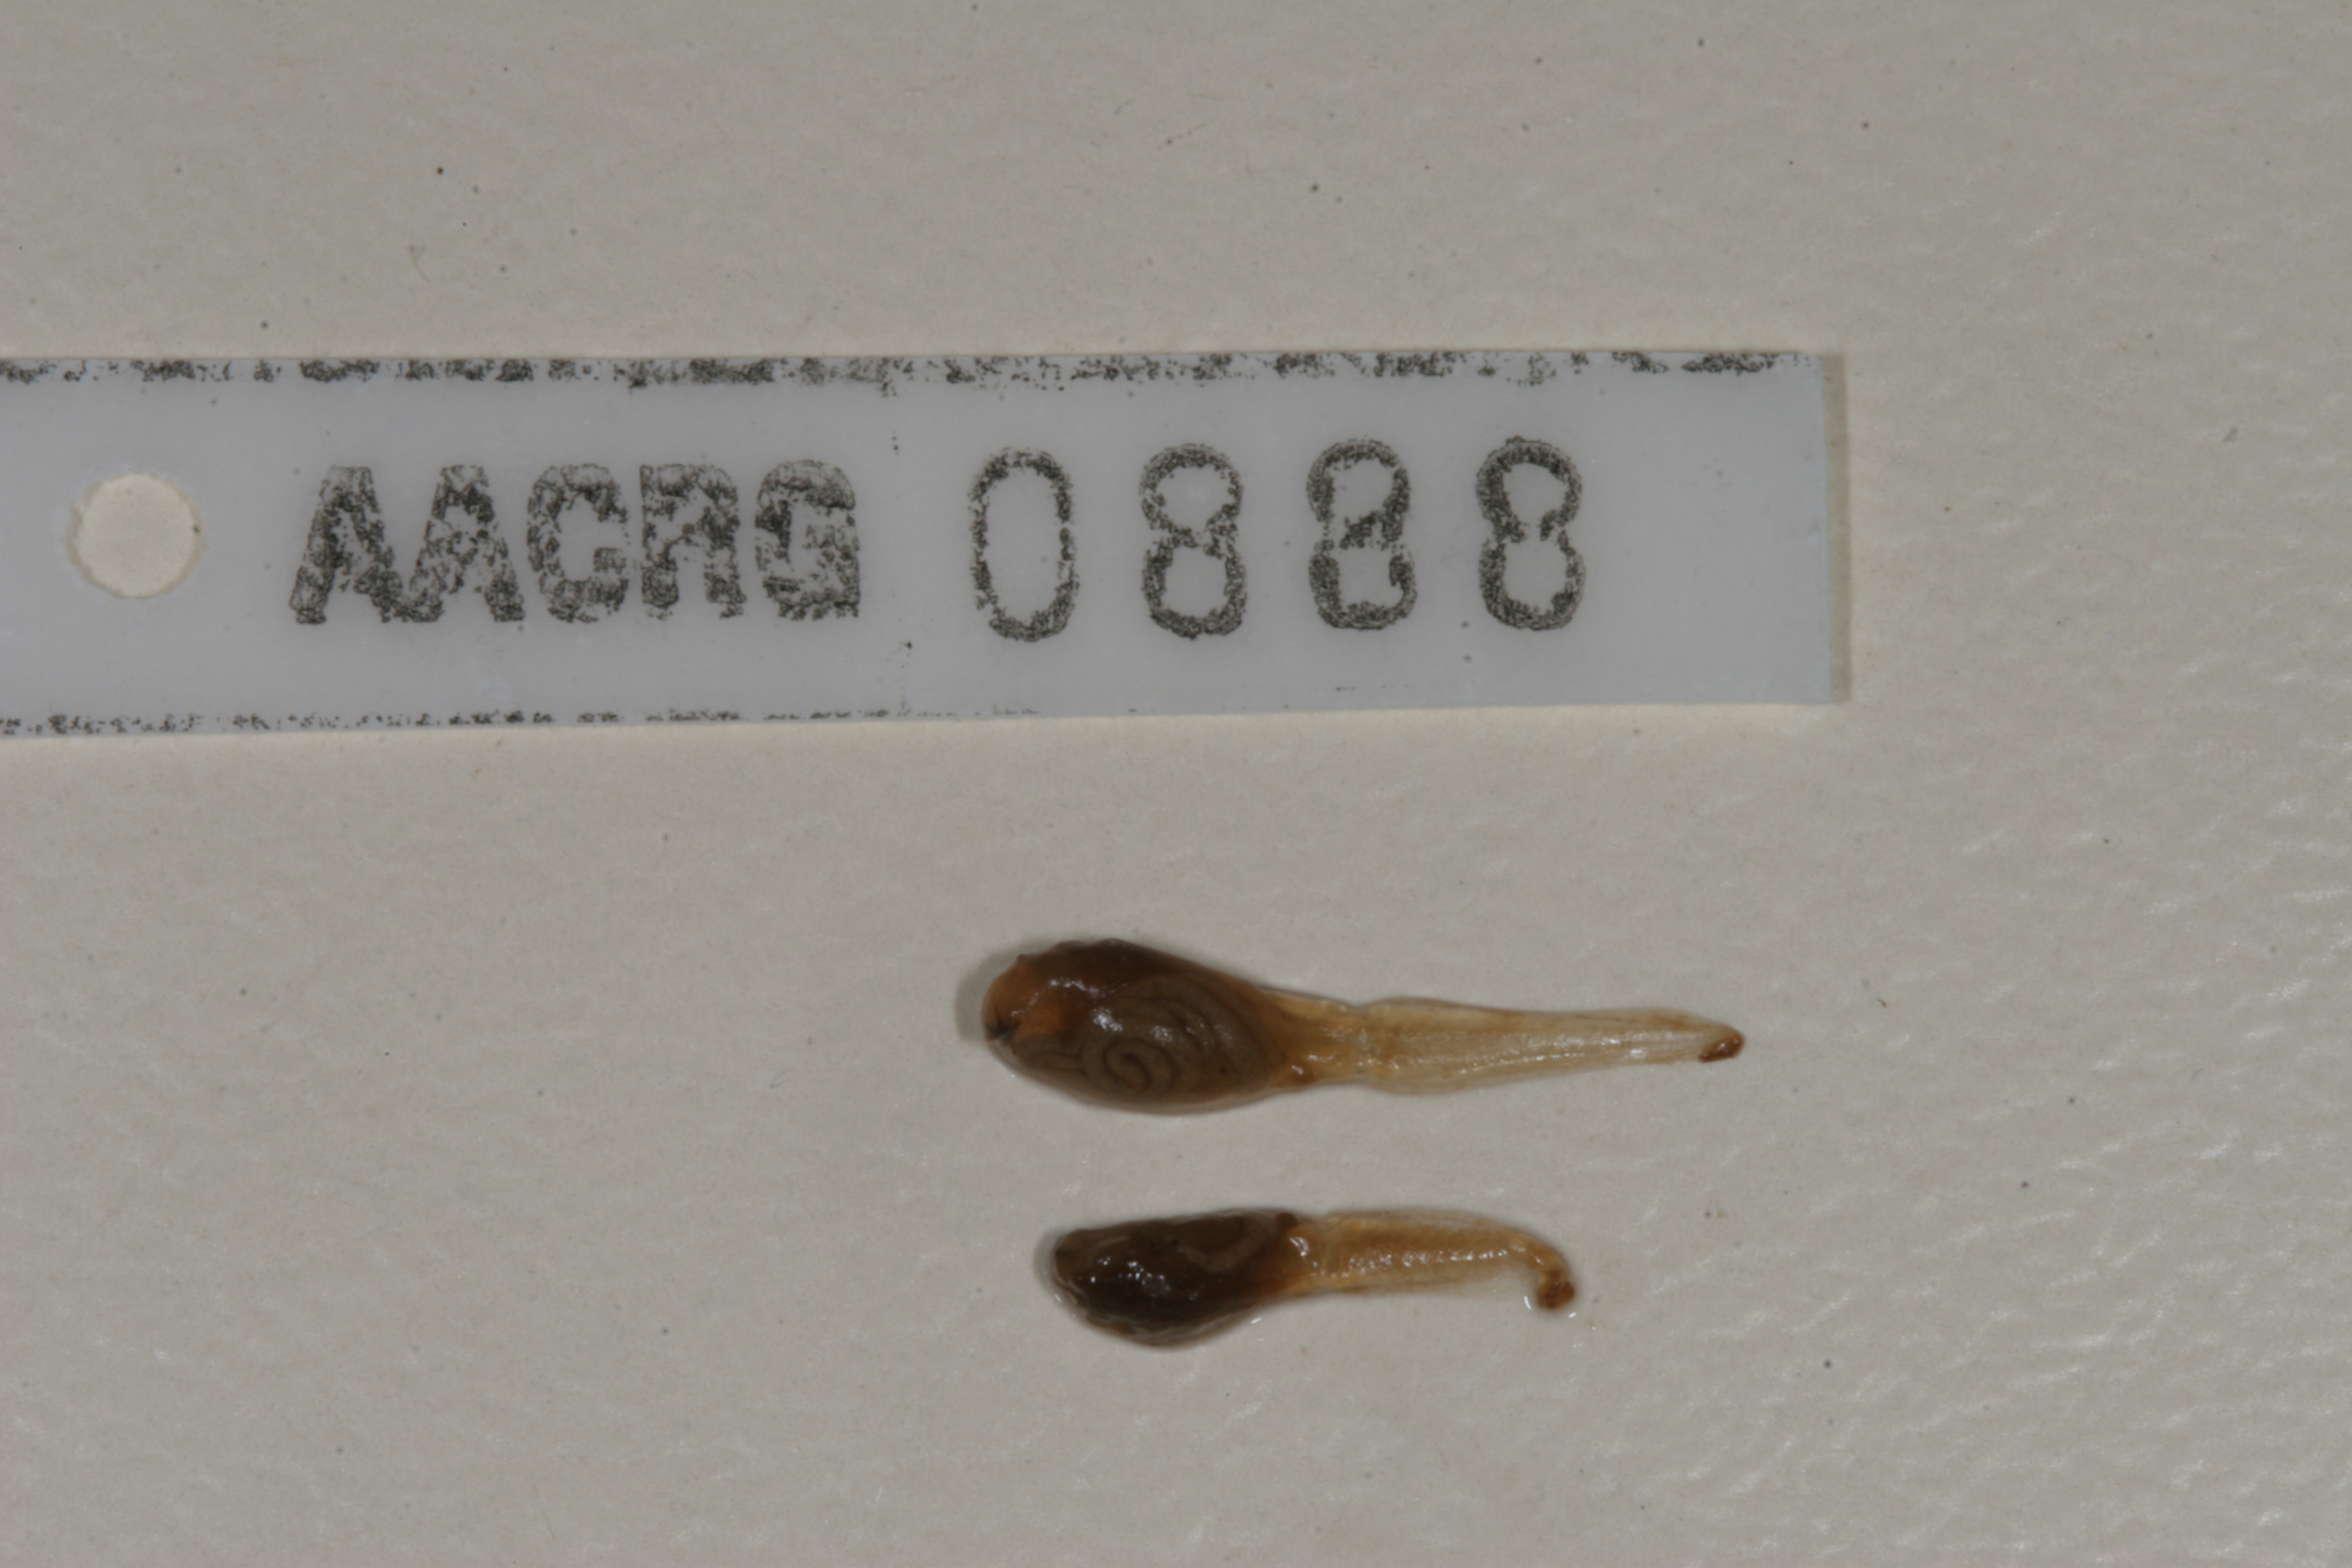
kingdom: Animalia
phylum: Chordata
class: Amphibia
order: Anura
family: Bufonidae
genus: Vandijkophrynus
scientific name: Vandijkophrynus gariepensis
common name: Gariep toad
